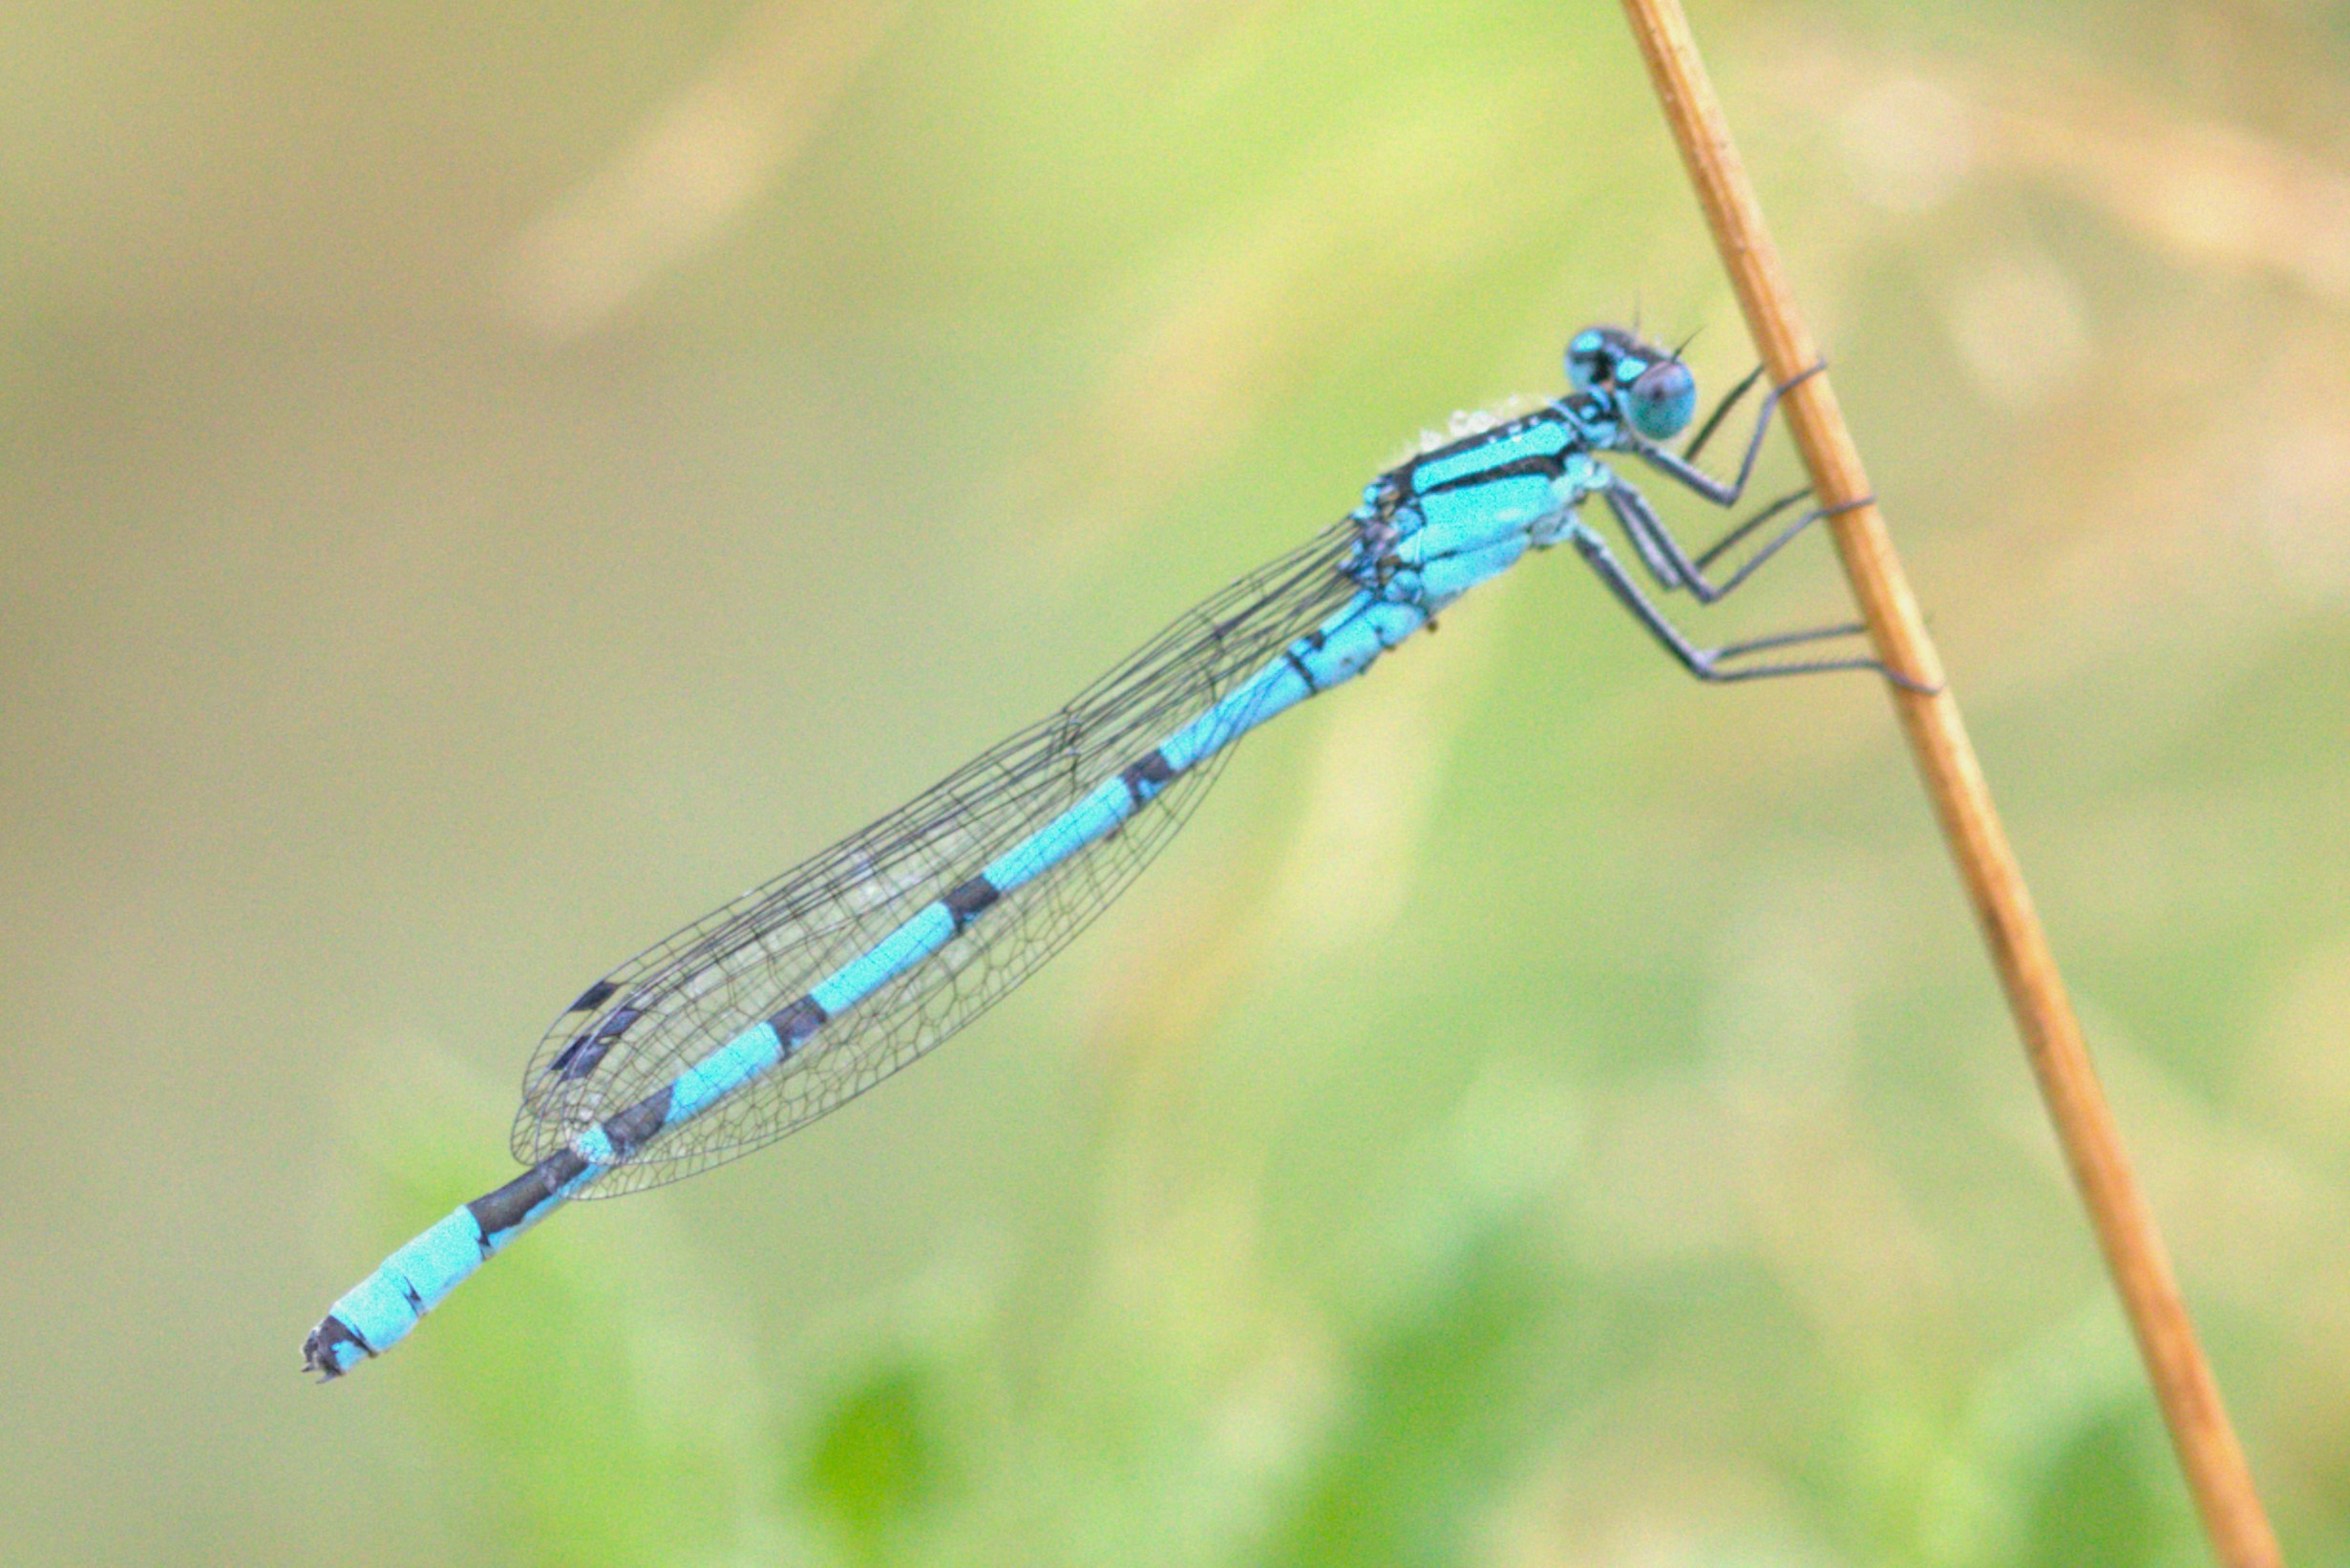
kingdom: Animalia
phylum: Arthropoda
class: Insecta
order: Odonata
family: Coenagrionidae
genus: Enallagma
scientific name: Enallagma cyathigerum
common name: Almindelig vandnymfe
